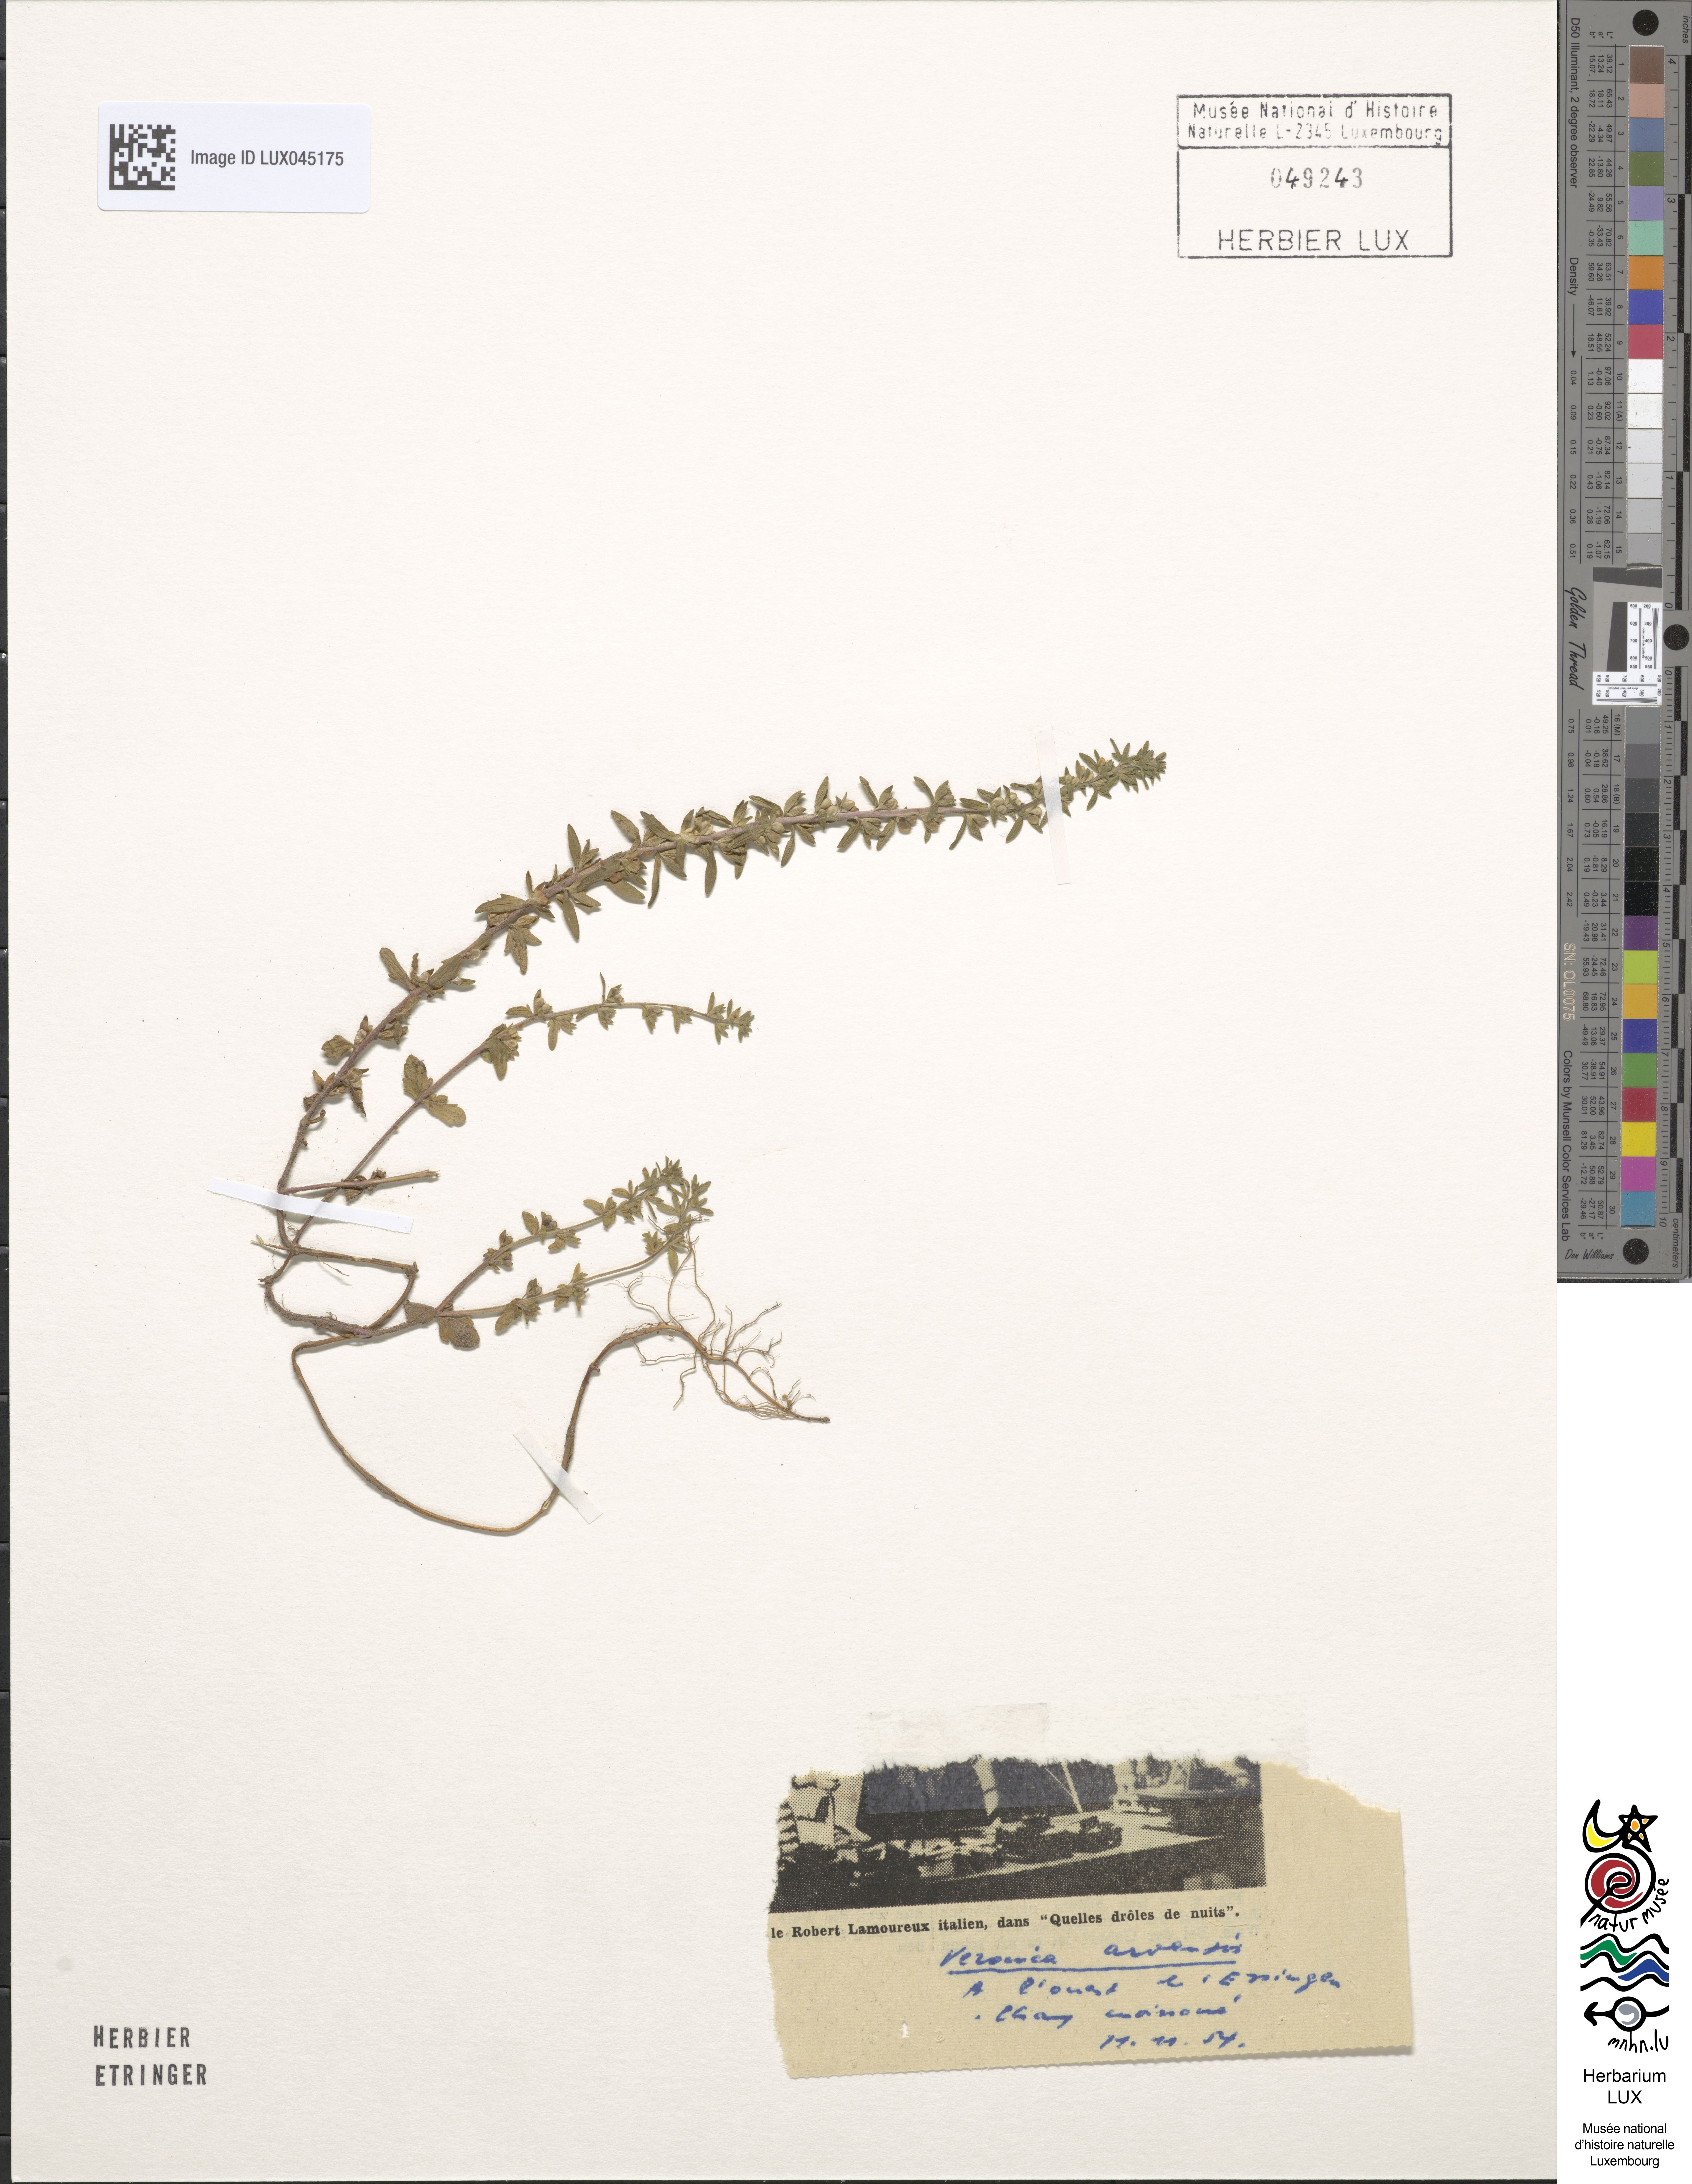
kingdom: Plantae
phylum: Tracheophyta
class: Magnoliopsida
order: Lamiales
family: Plantaginaceae
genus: Veronica
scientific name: Veronica arvensis
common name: Corn speedwell
